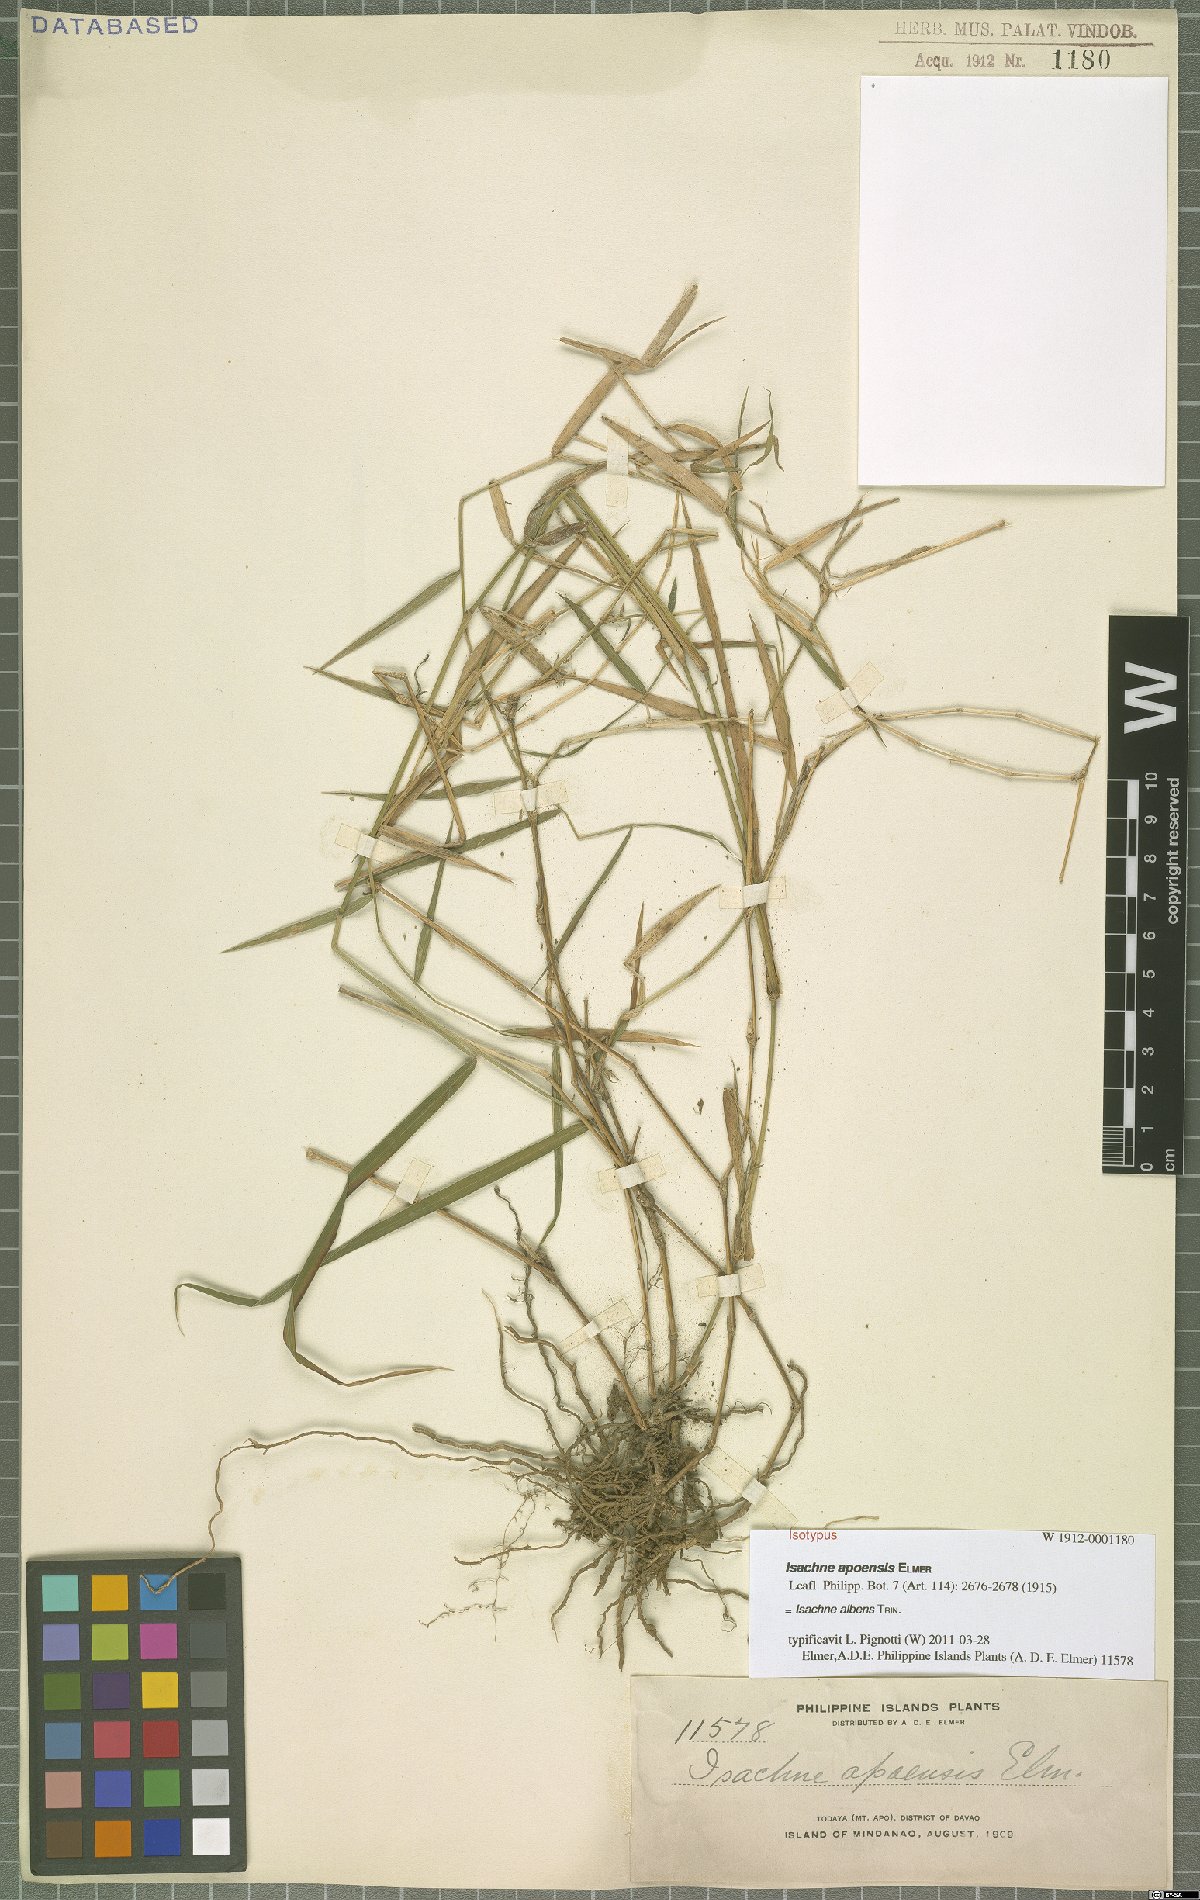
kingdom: Plantae
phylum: Tracheophyta
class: Liliopsida
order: Poales
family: Poaceae
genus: Isachne
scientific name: Isachne albens
